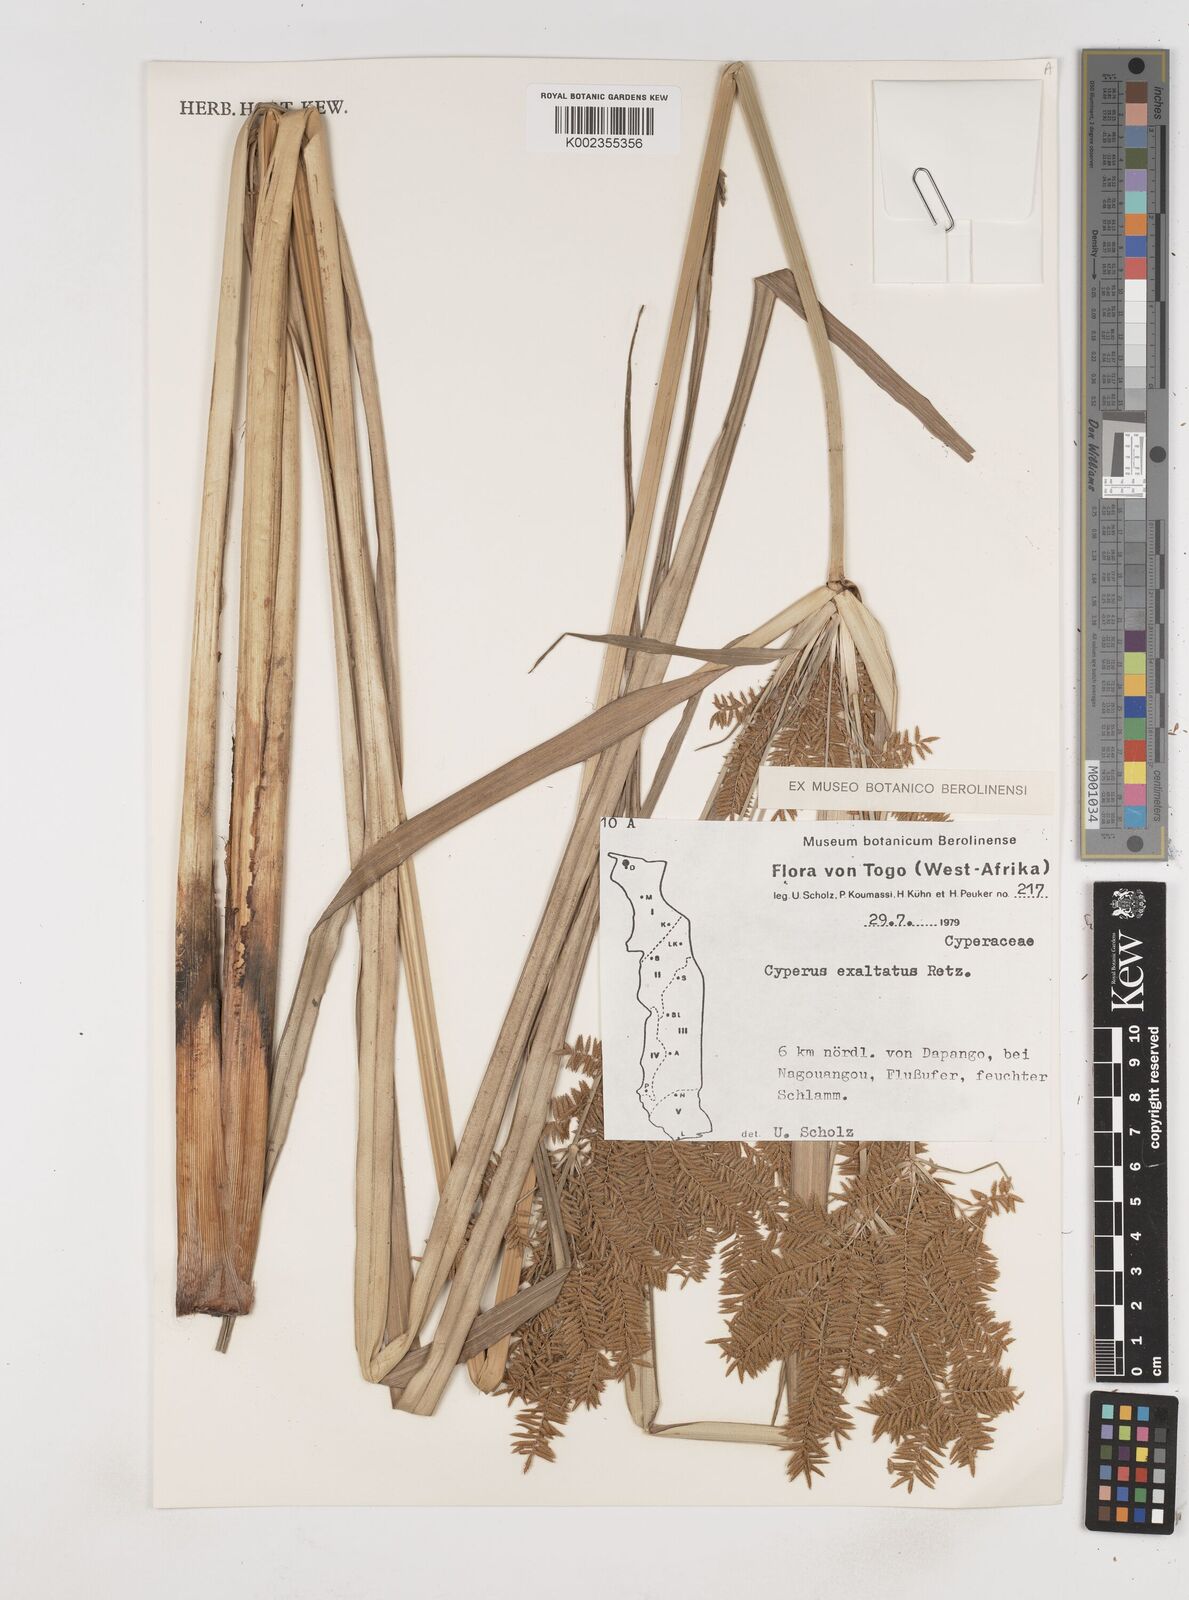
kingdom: Plantae
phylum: Tracheophyta
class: Liliopsida
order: Poales
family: Cyperaceae
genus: Cyperus
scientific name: Cyperus exaltatus
